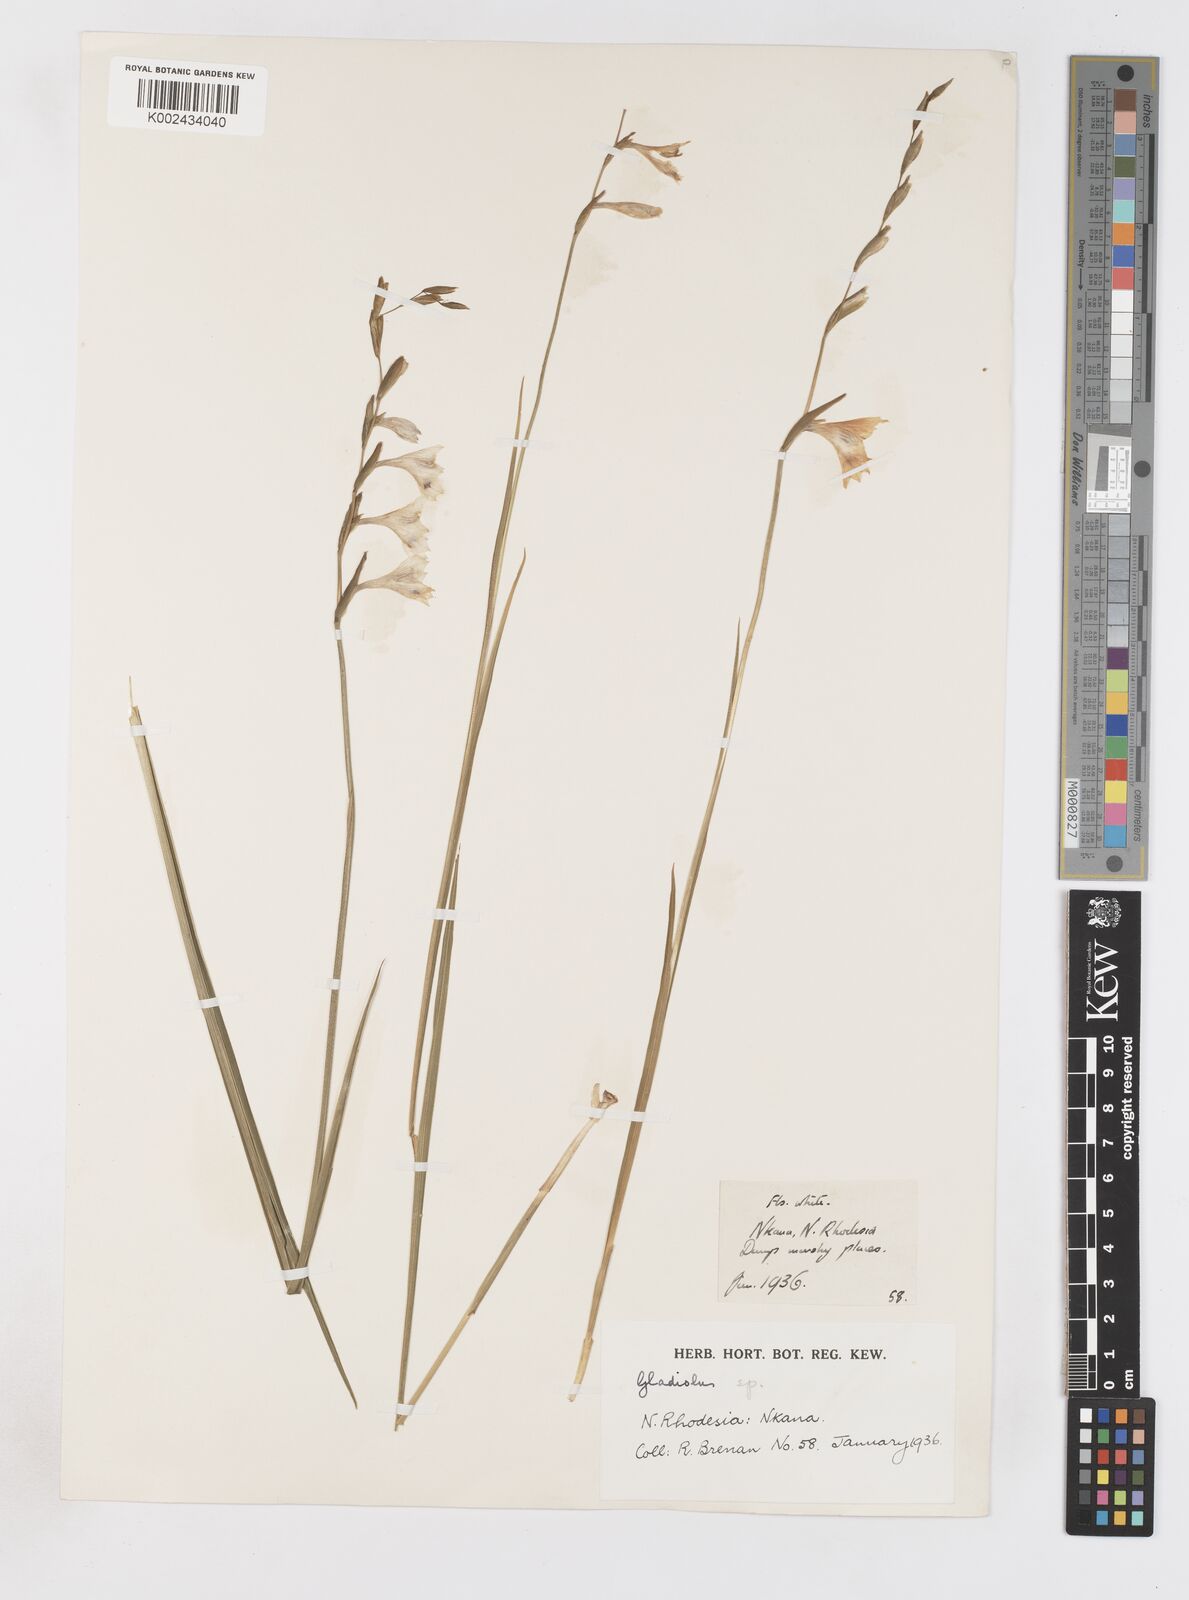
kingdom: Plantae
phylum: Tracheophyta
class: Liliopsida
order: Asparagales
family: Iridaceae
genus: Gladiolus
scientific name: Gladiolus atropurpureus
